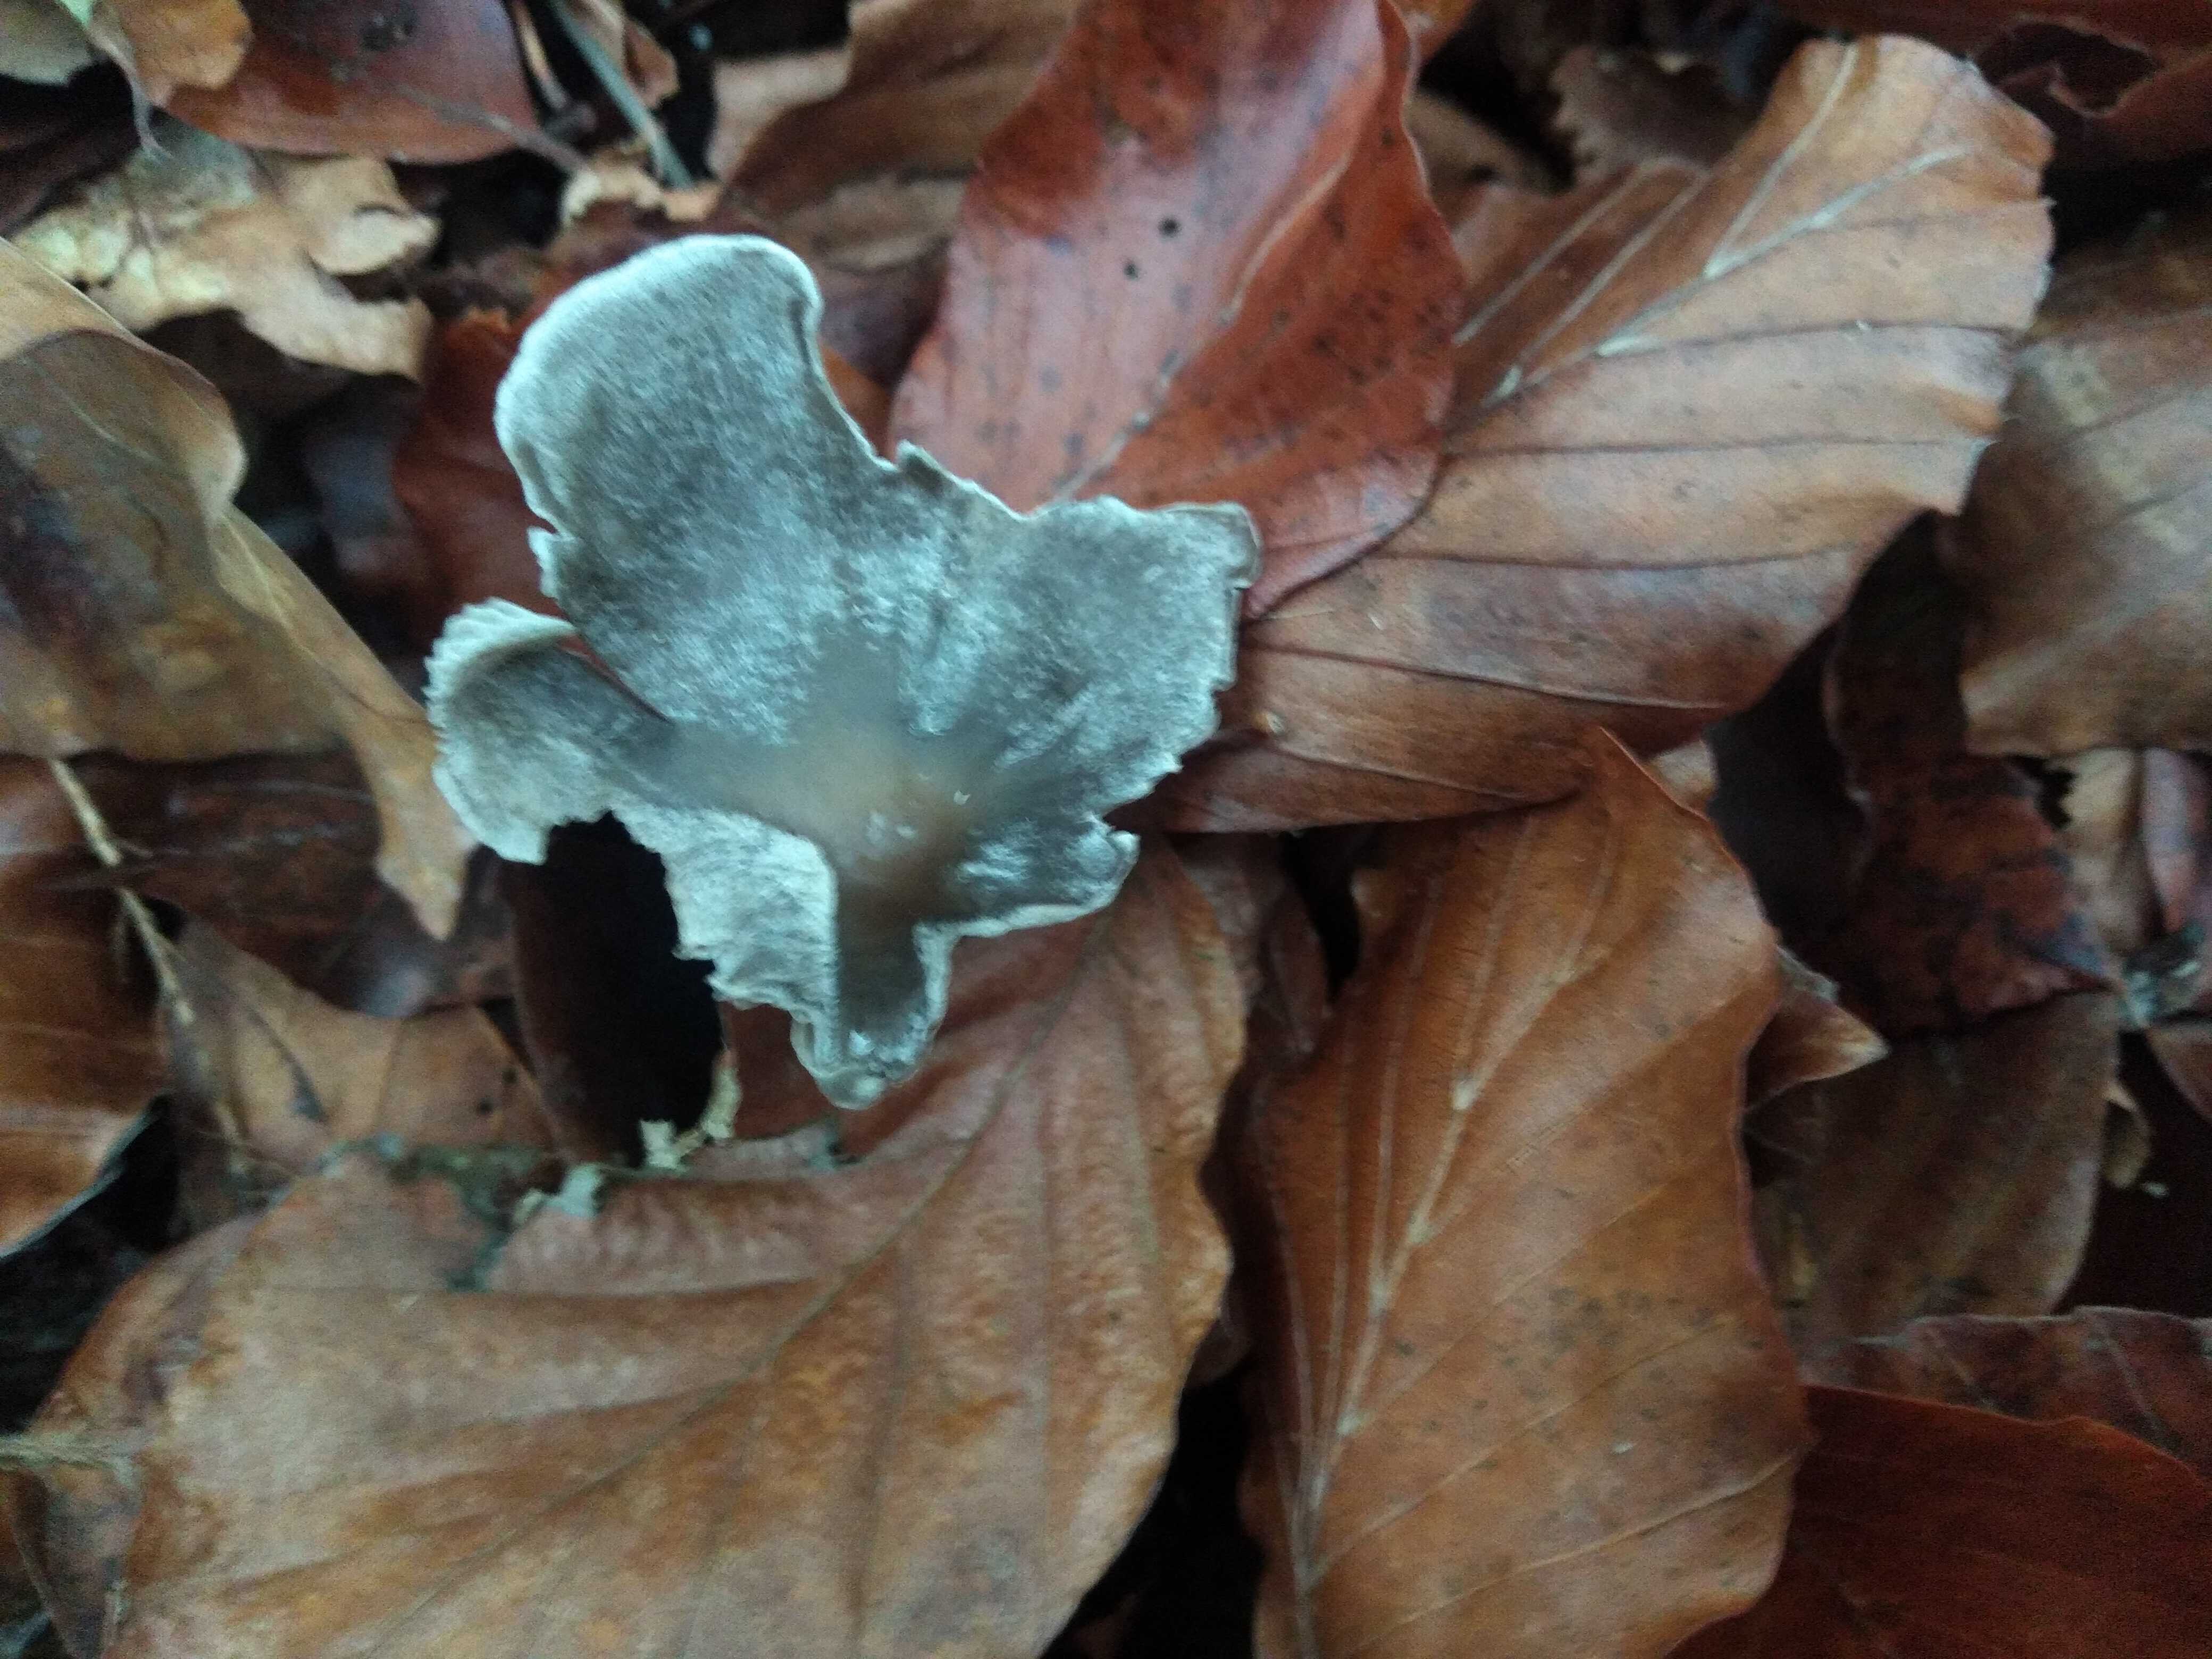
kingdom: Fungi
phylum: Basidiomycota
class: Agaricomycetes
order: Agaricales
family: Lyophyllaceae
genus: Tephrocybe
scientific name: Tephrocybe rancida
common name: mel-gråblad
